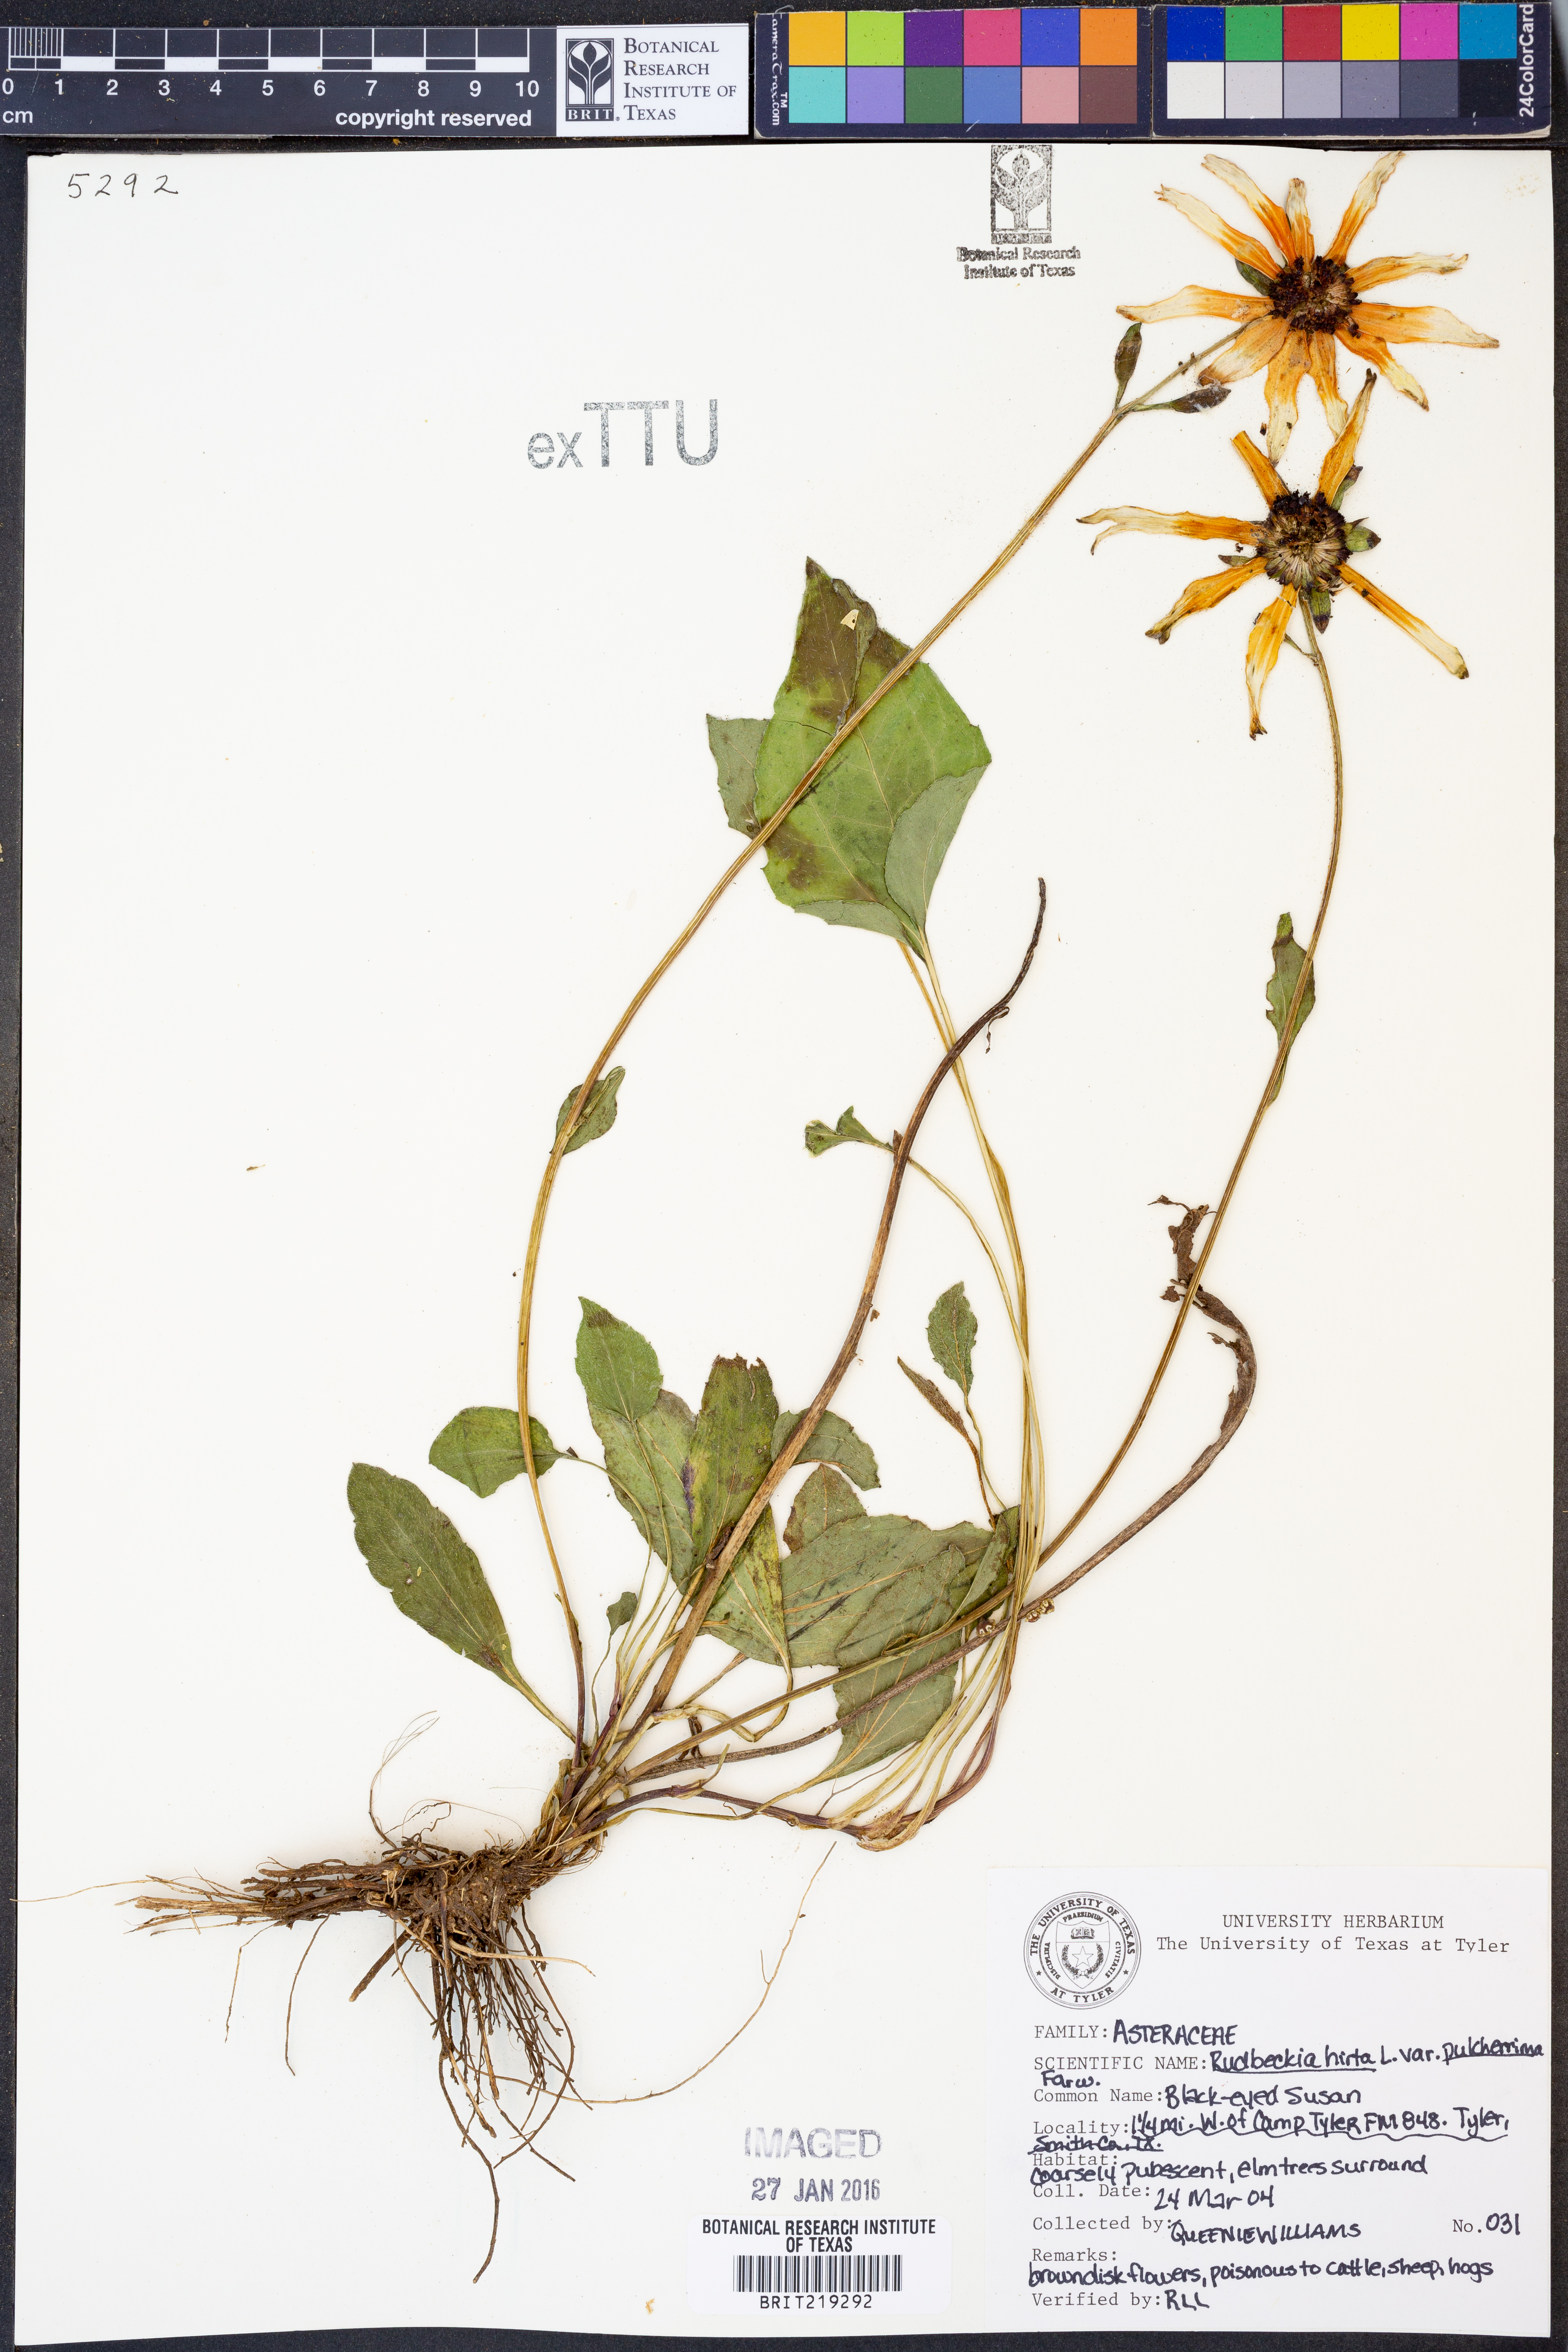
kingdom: Plantae
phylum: Tracheophyta
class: Magnoliopsida
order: Asterales
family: Asteraceae
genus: Rudbeckia
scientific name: Rudbeckia hirta
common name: Black-eyed-susan
